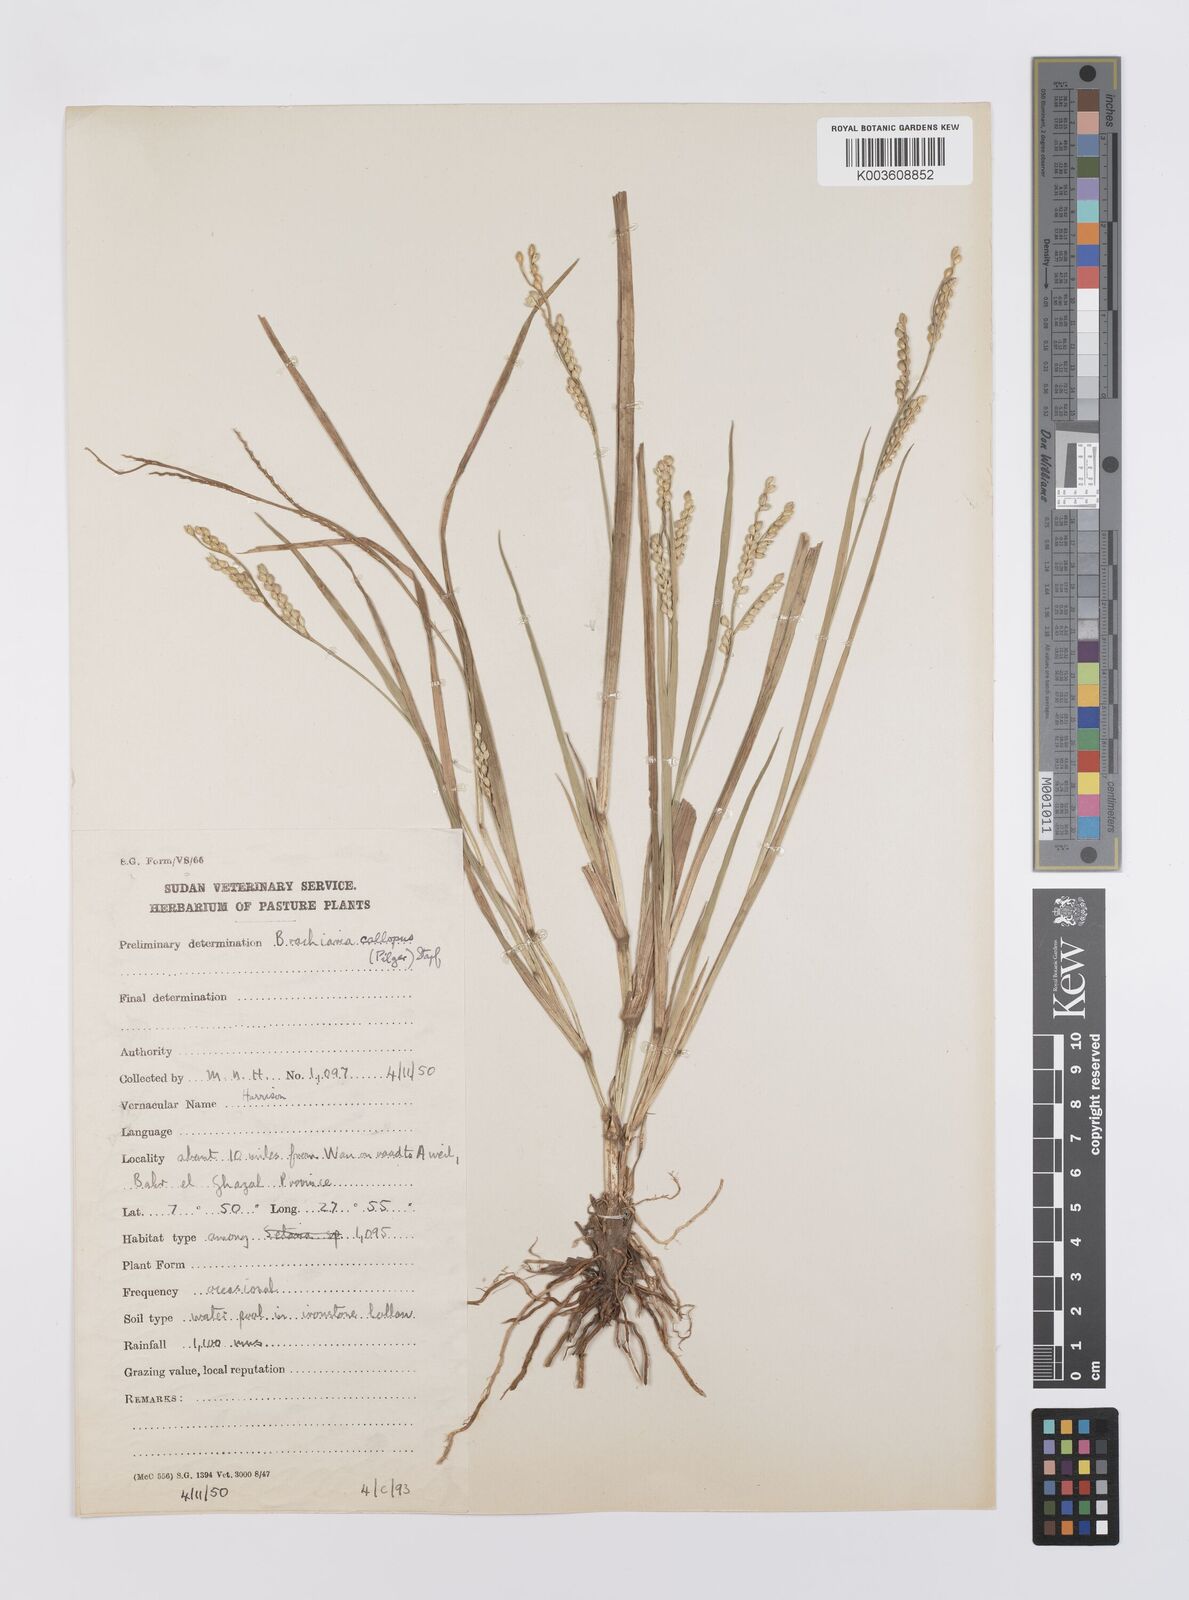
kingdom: Plantae
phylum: Tracheophyta
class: Liliopsida
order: Poales
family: Poaceae
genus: Echinochloa
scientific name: Echinochloa callopus
